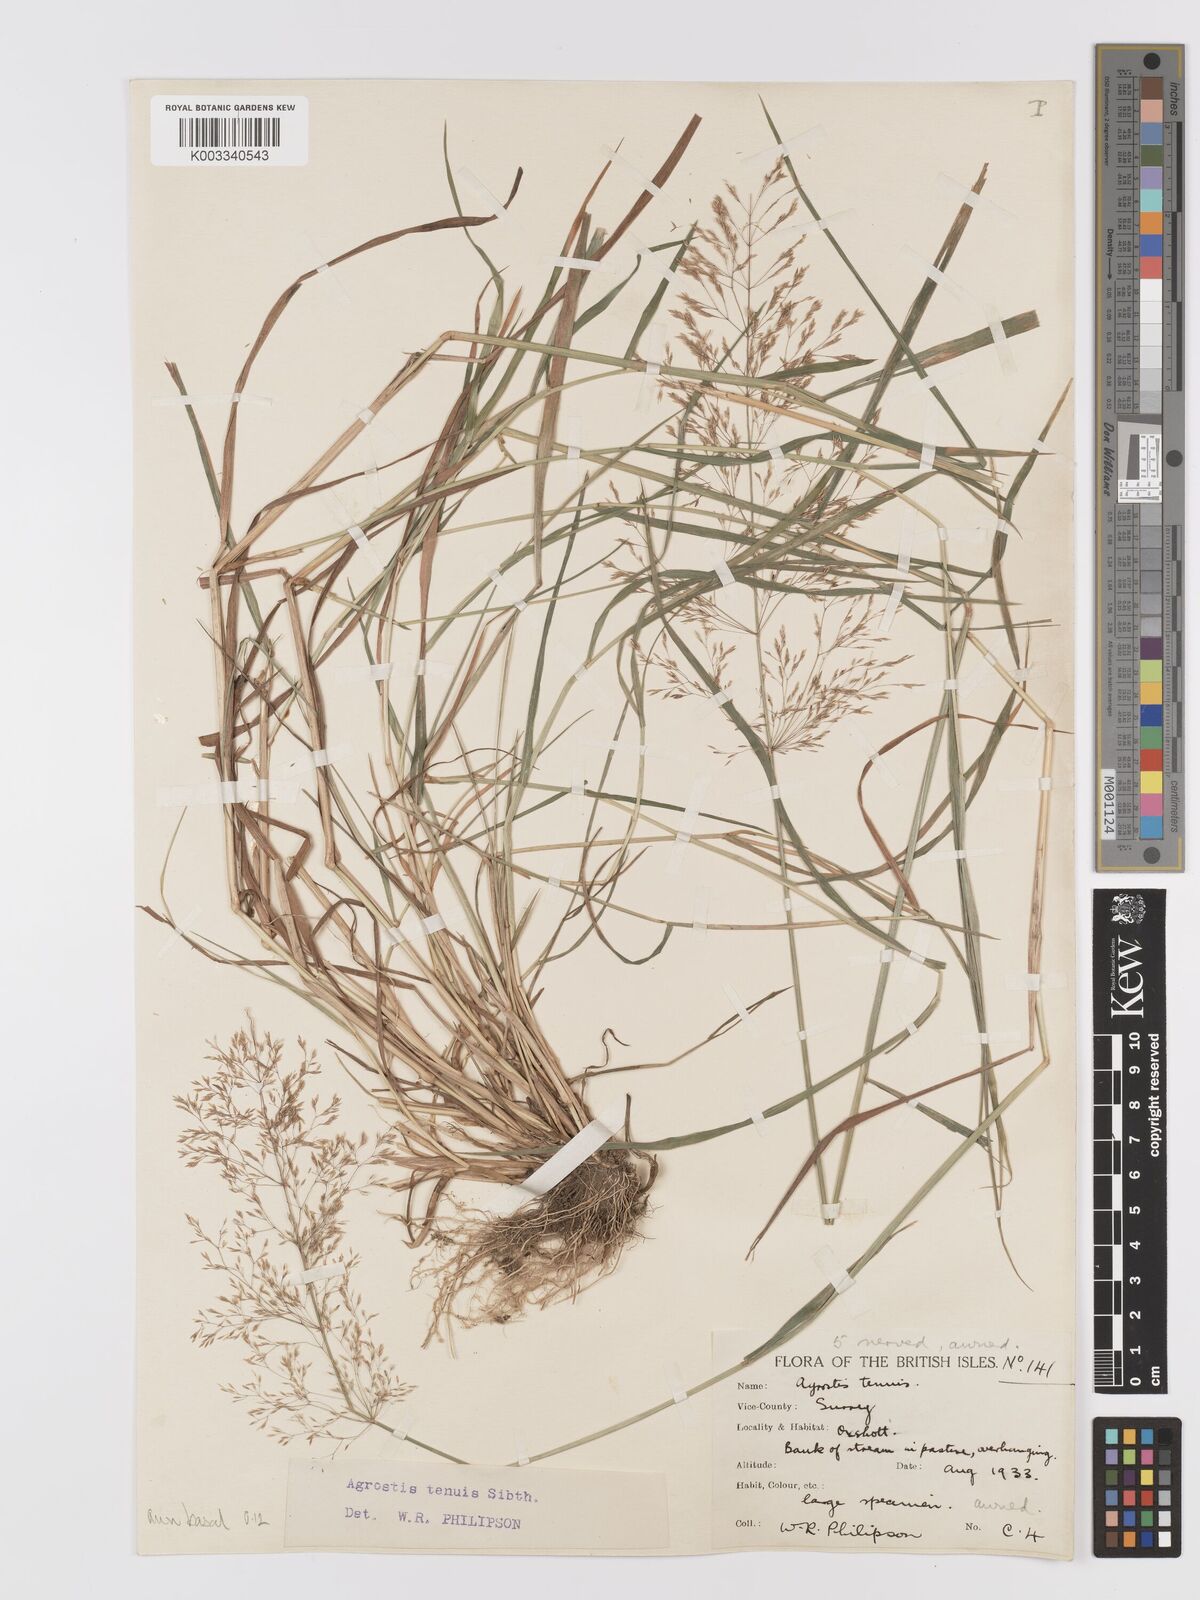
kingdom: Plantae
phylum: Tracheophyta
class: Liliopsida
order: Poales
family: Poaceae
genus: Agrostis
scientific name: Agrostis capillaris
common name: Colonial bentgrass
